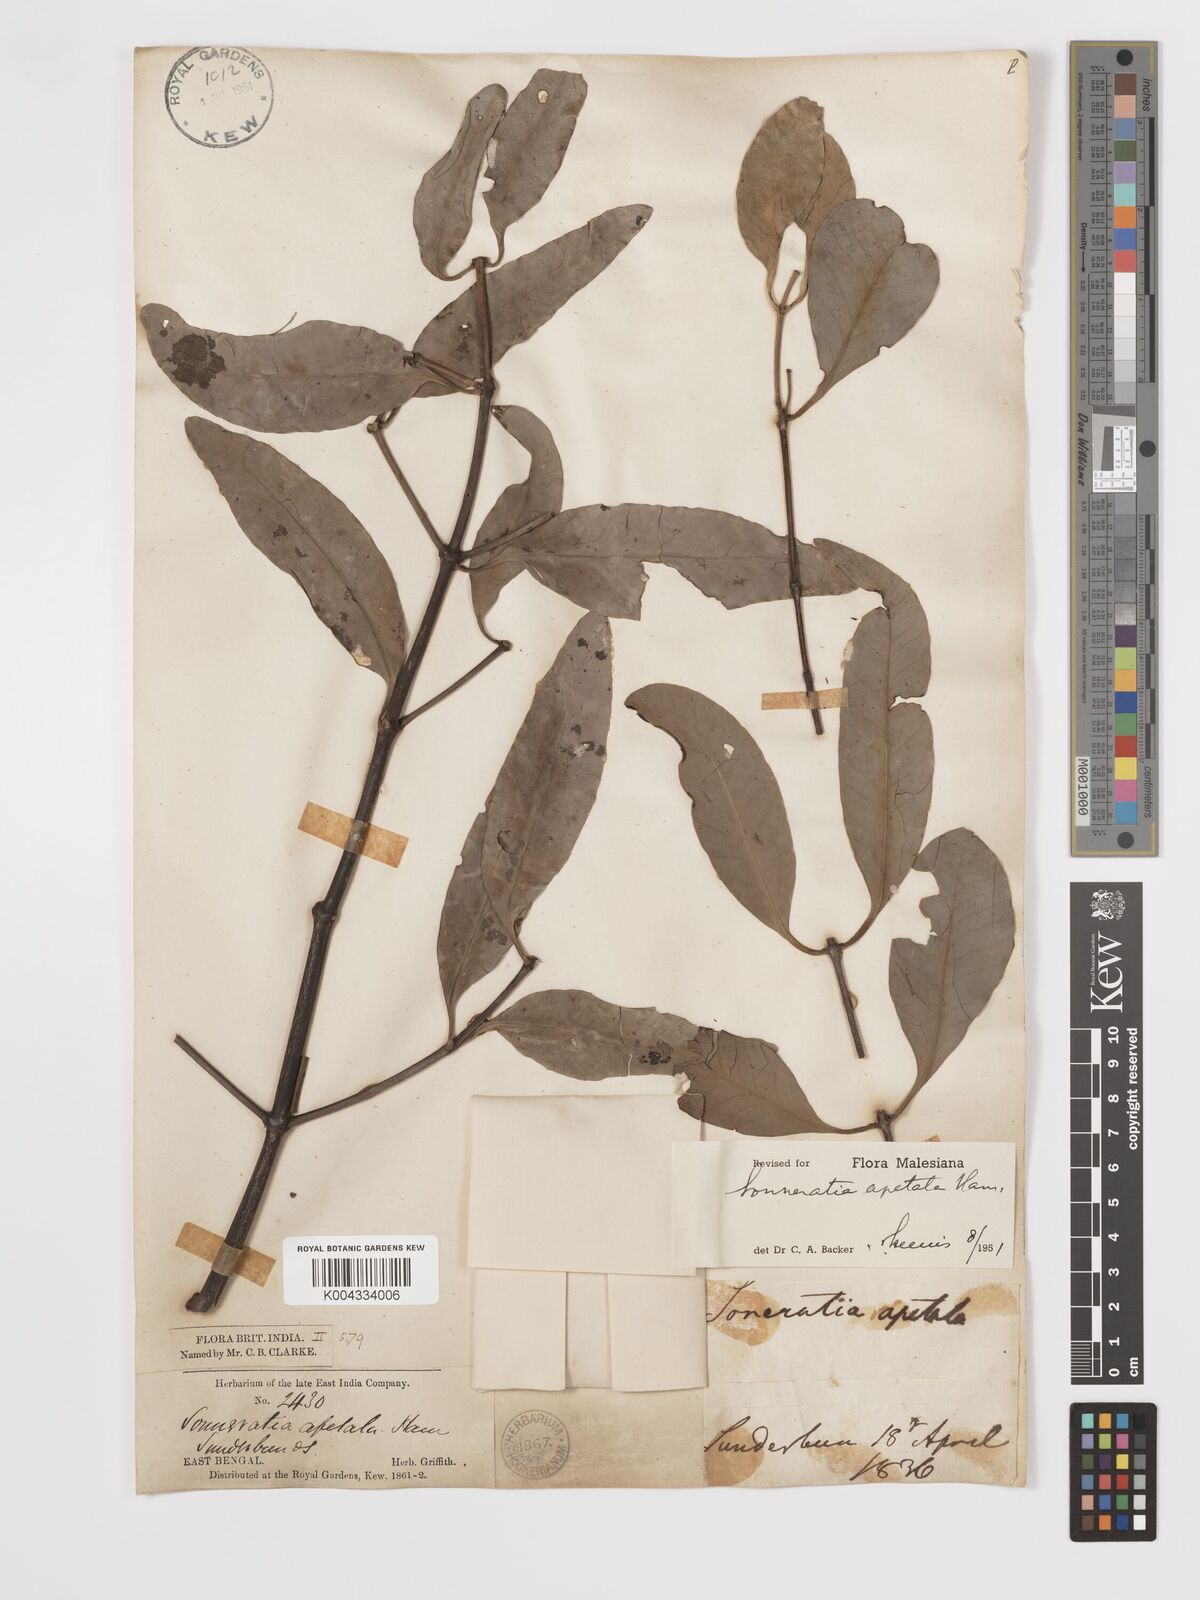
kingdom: Plantae
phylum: Tracheophyta
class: Magnoliopsida
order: Myrtales
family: Lythraceae
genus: Sonneratia
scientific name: Sonneratia apetala
